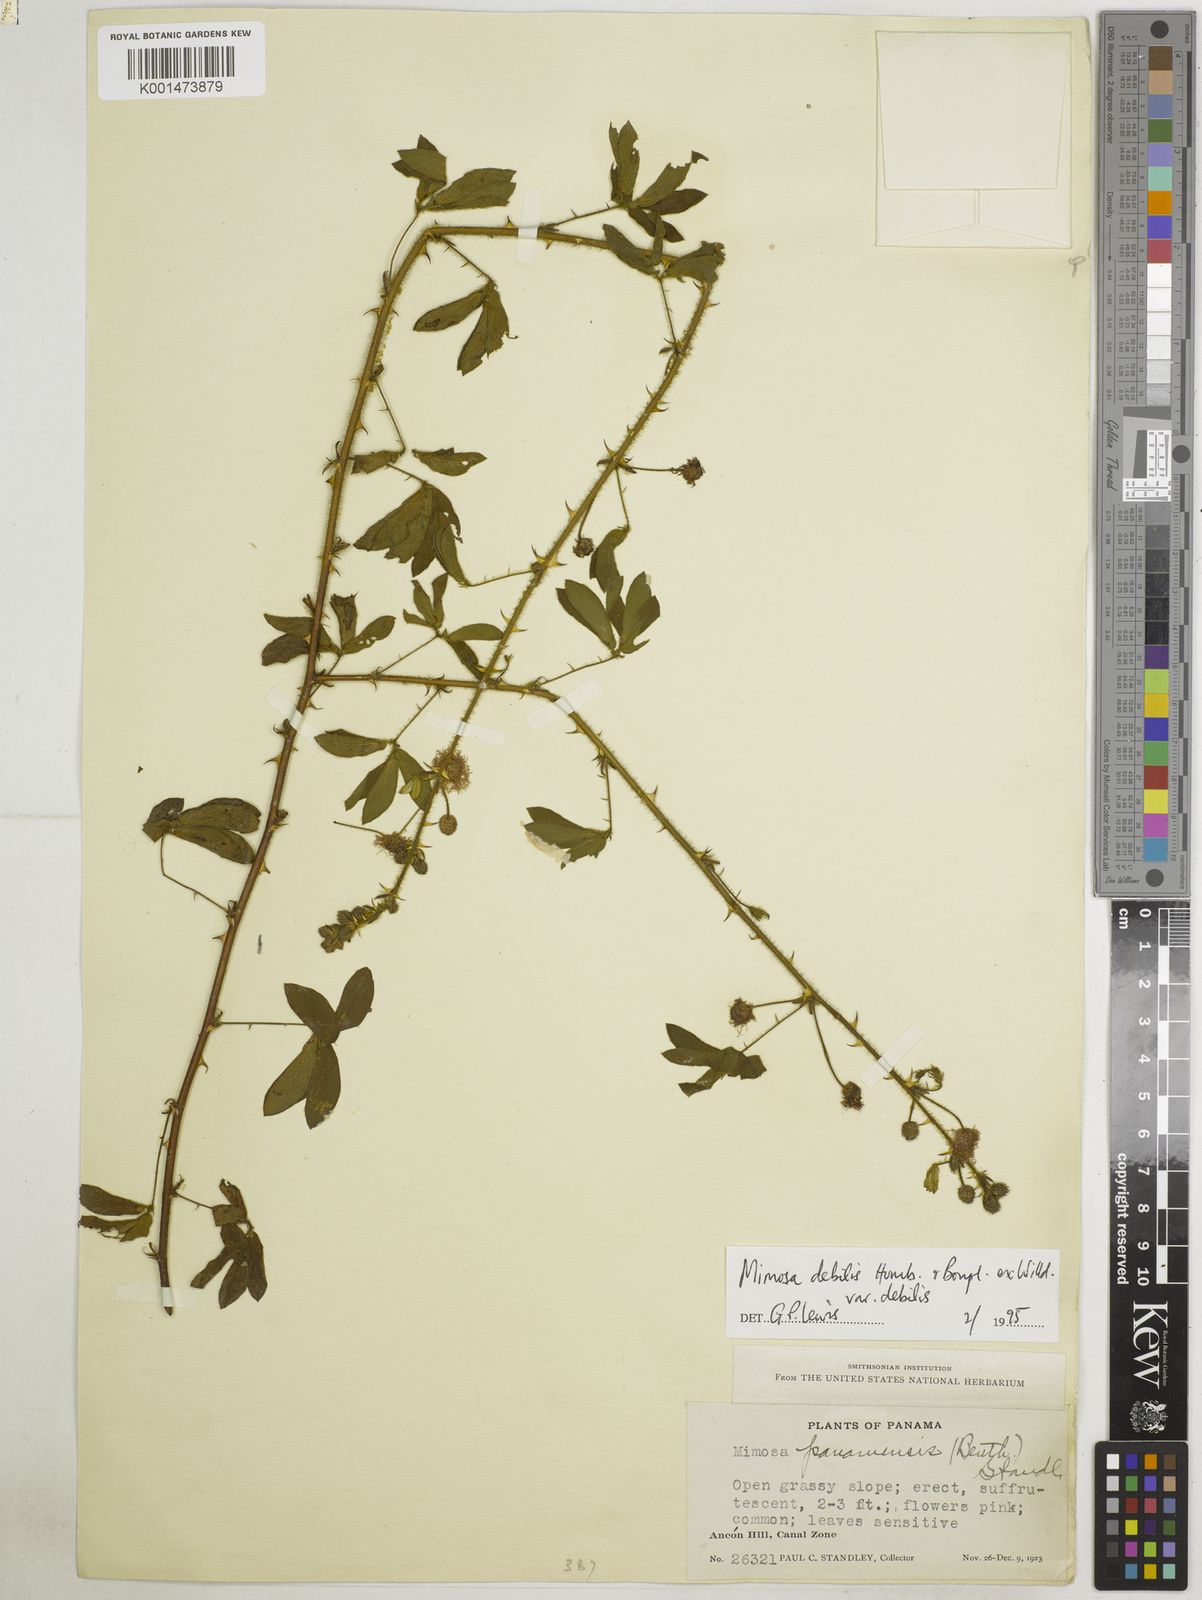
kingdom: Plantae
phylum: Tracheophyta
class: Magnoliopsida
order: Fabales
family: Fabaceae
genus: Mimosa
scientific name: Mimosa debilis
